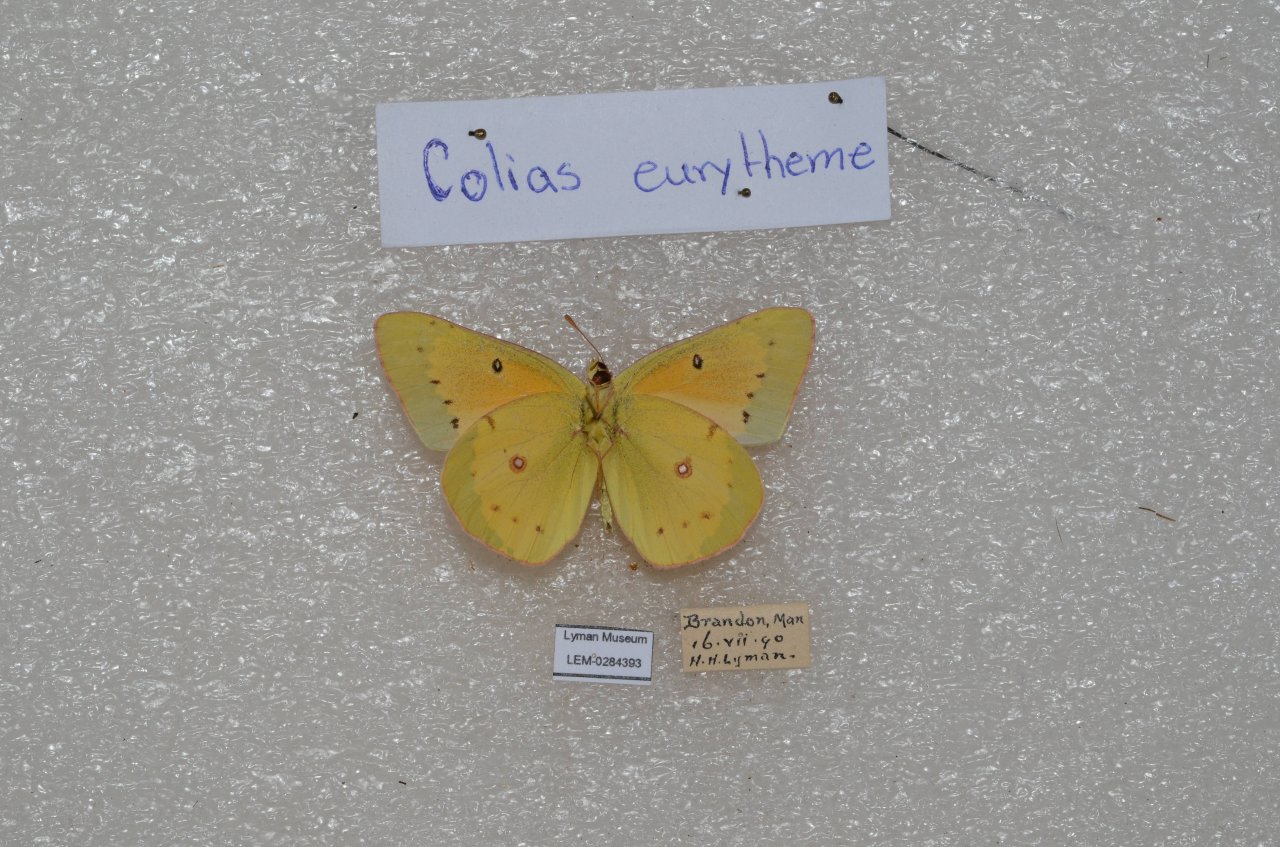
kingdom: Animalia
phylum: Arthropoda
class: Insecta
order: Lepidoptera
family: Pieridae
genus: Colias
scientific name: Colias eurytheme
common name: Orange Sulphur
